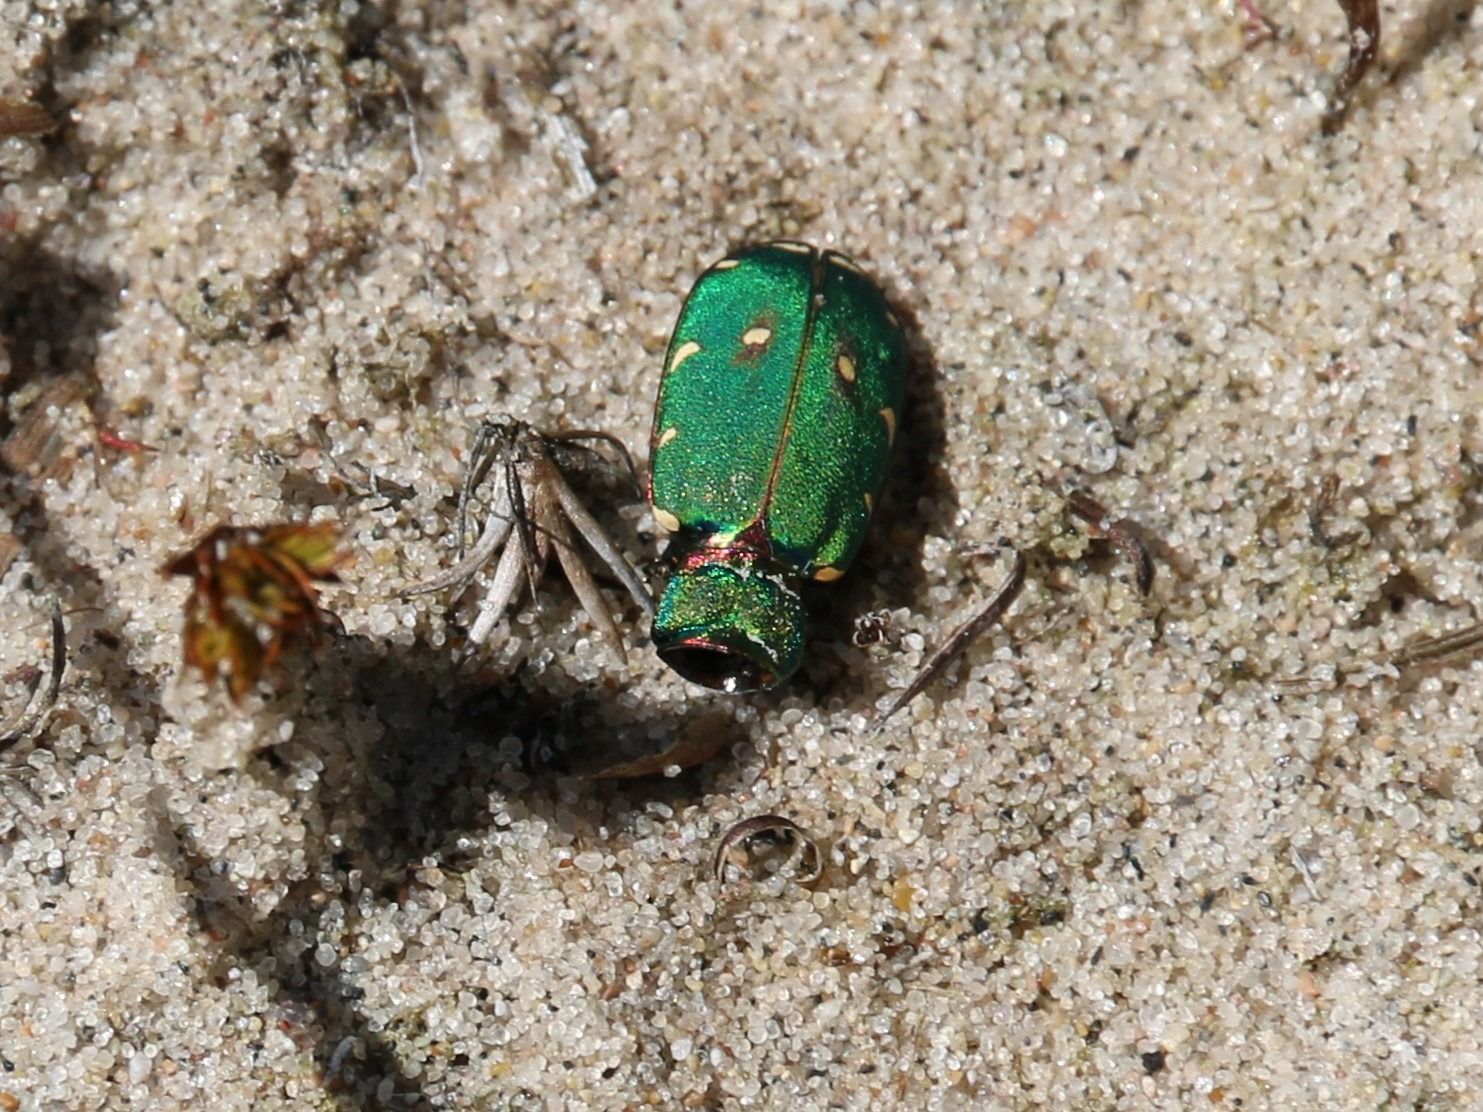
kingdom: Animalia
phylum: Arthropoda
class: Insecta
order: Coleoptera
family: Carabidae
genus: Cicindela
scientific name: Cicindela campestris
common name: Grøn sandspringer
